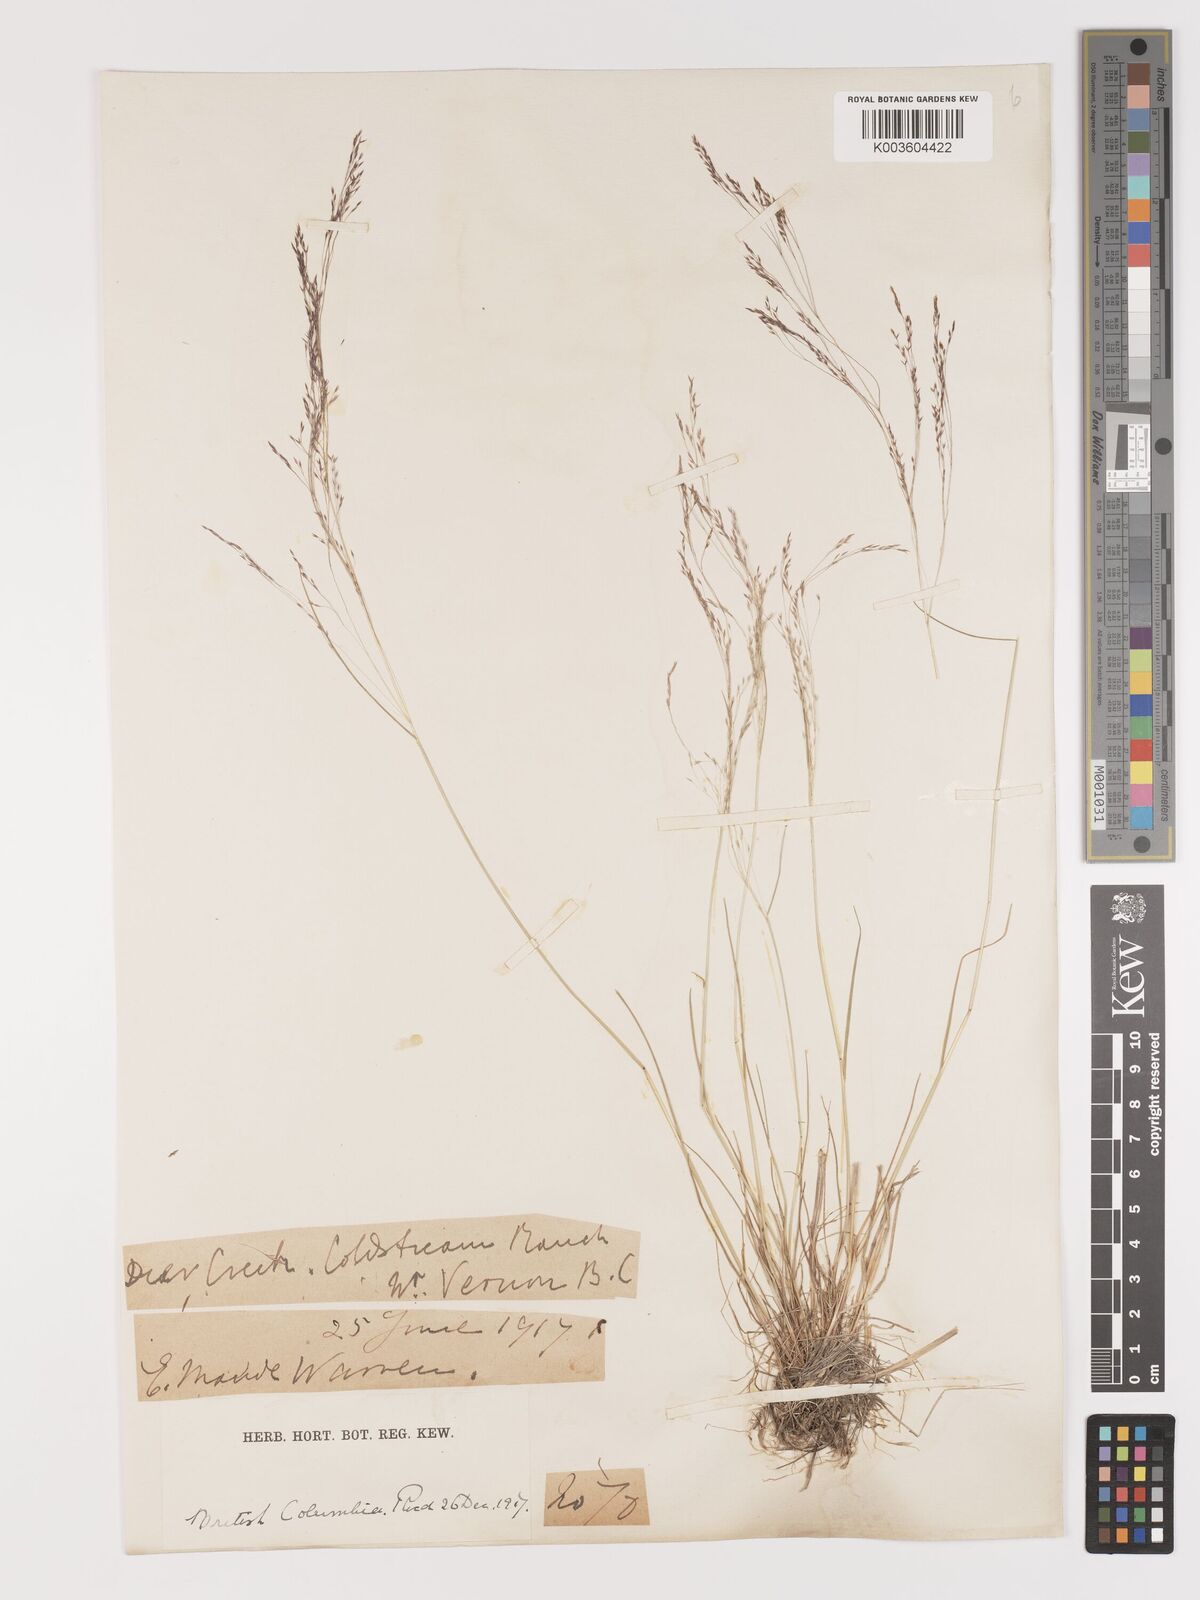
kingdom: Plantae
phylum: Tracheophyta
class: Liliopsida
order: Poales
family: Poaceae
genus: Agrostis
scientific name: Agrostis hyemalis
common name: Small bent
